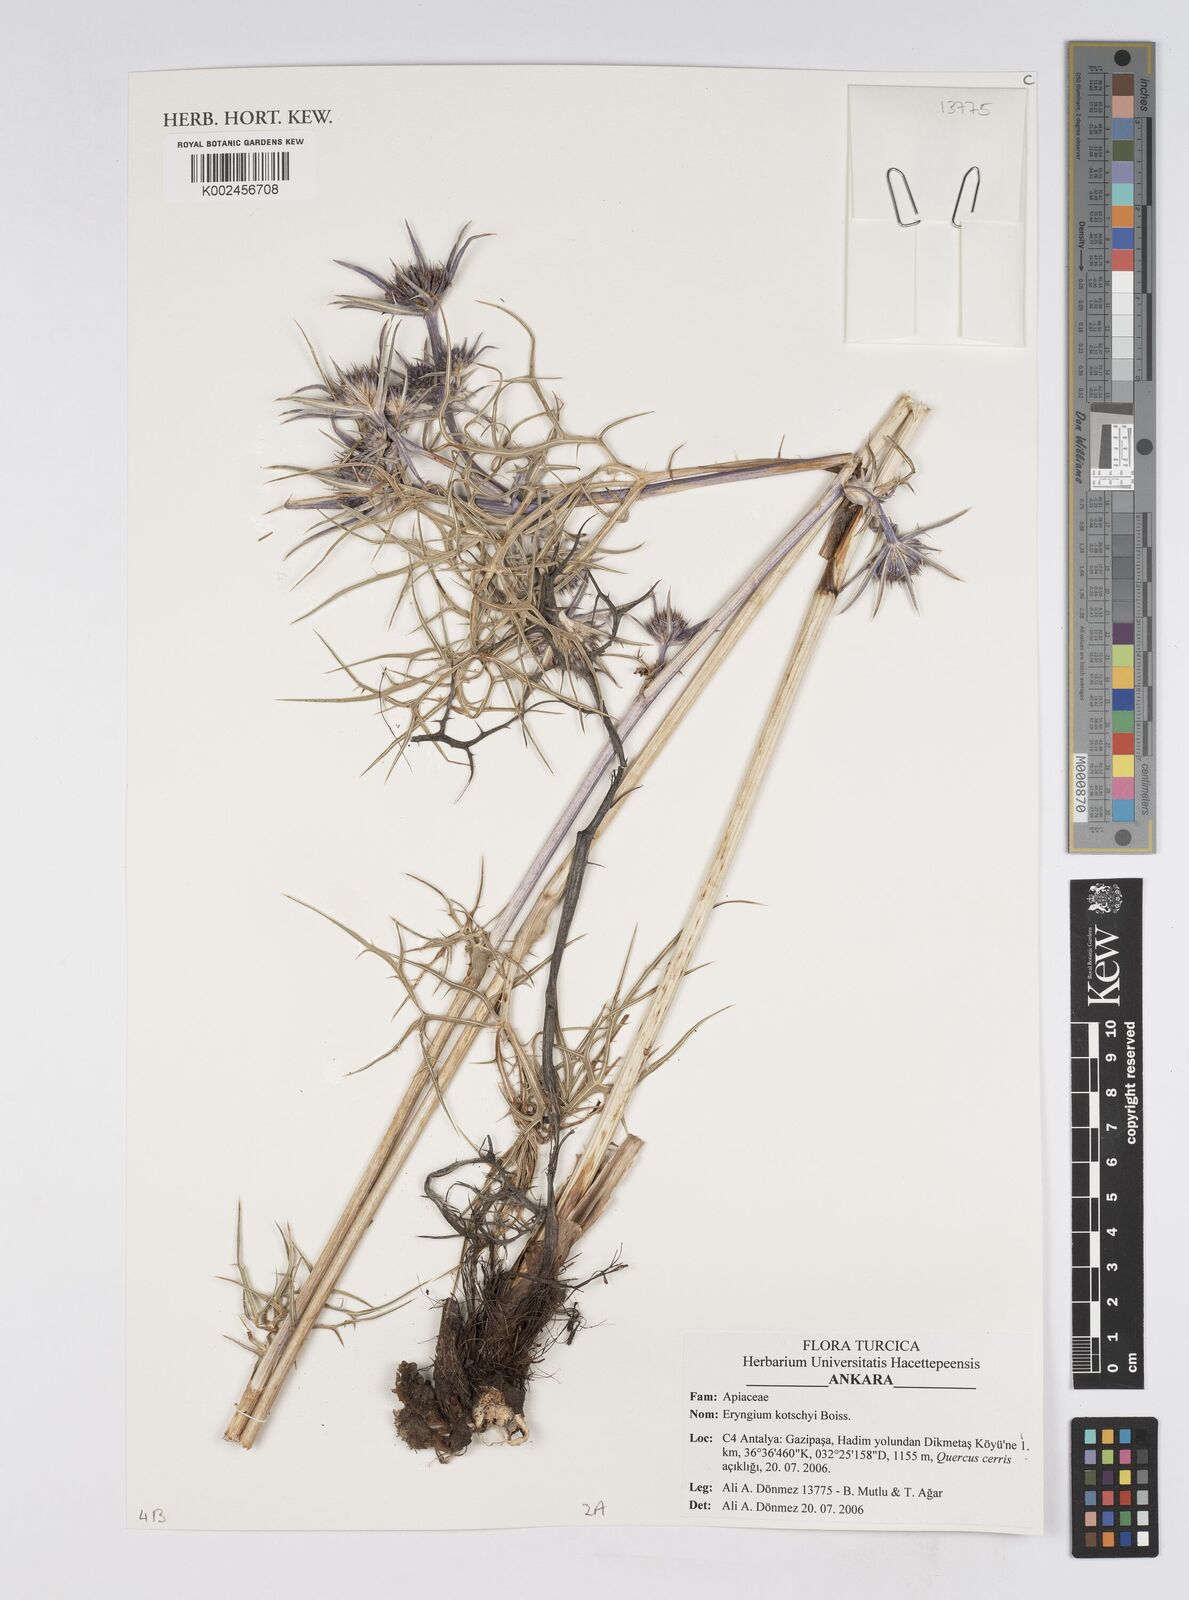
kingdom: Plantae
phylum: Tracheophyta
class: Magnoliopsida
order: Apiales
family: Apiaceae
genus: Eryngium
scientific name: Eryngium kotschyi
